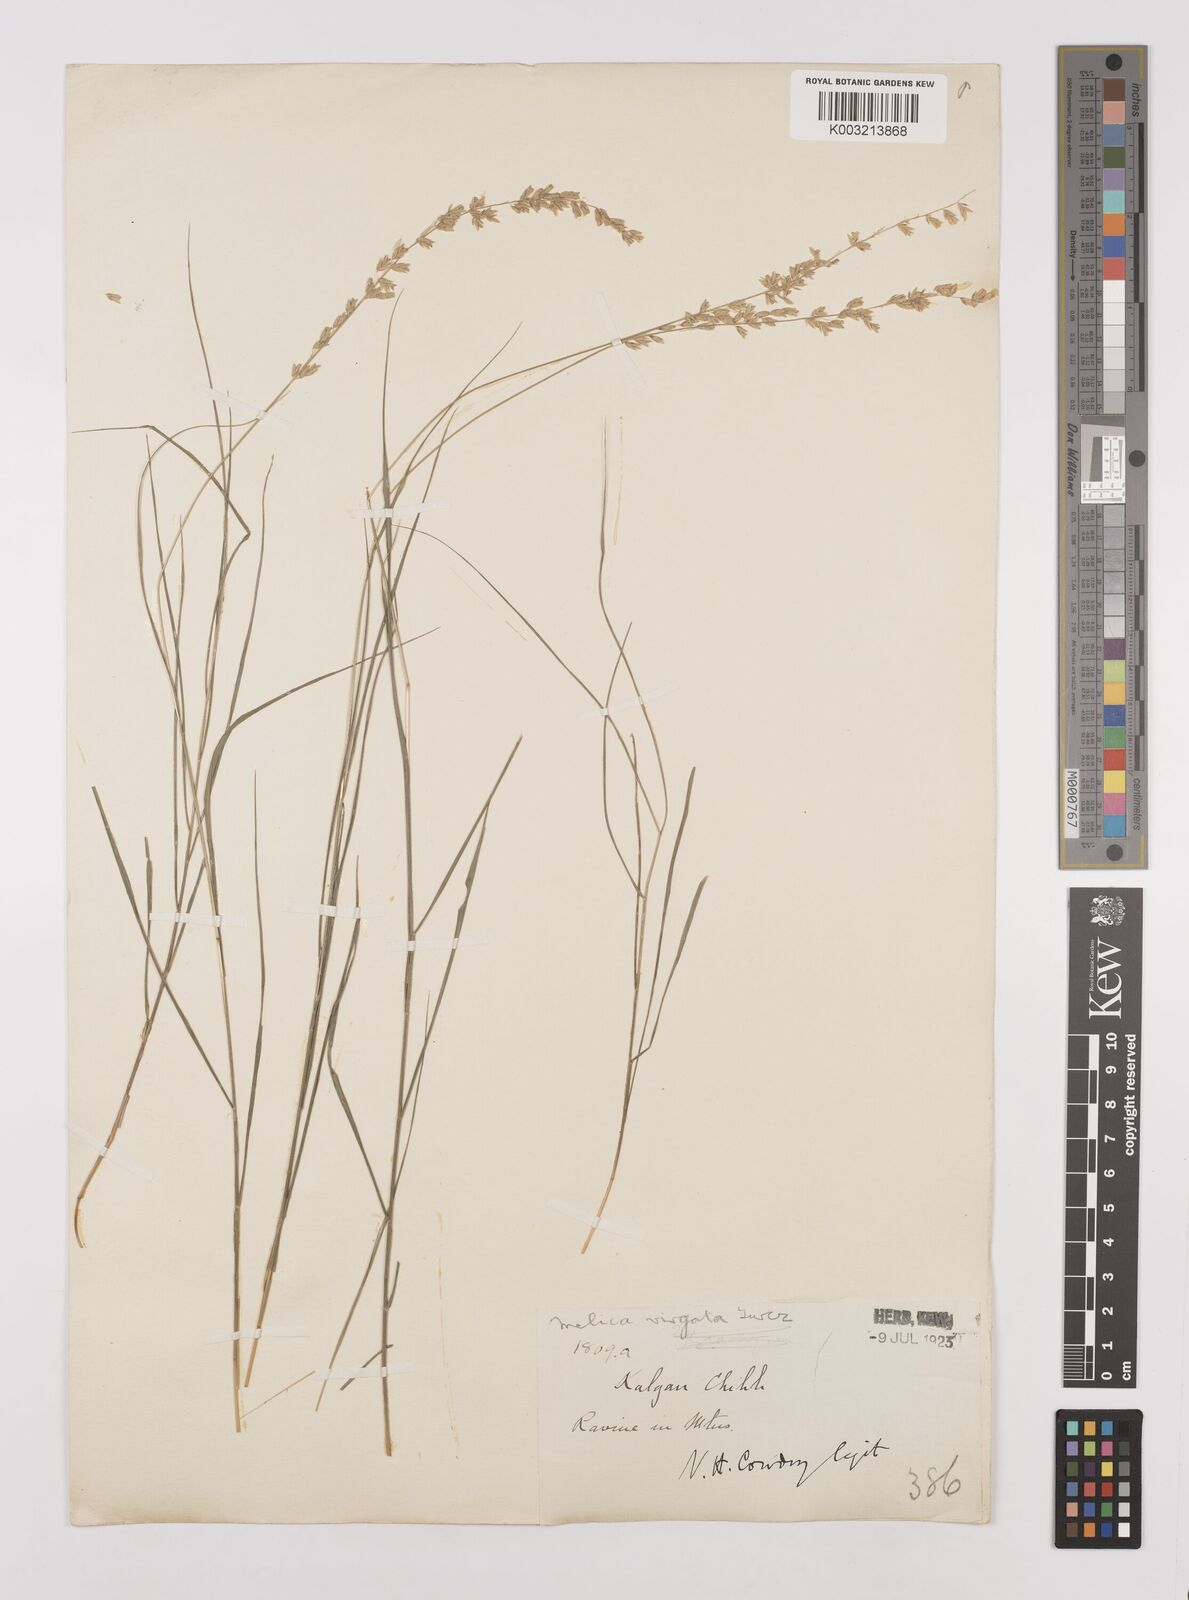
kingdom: Plantae
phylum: Tracheophyta
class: Liliopsida
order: Poales
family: Poaceae
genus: Melica
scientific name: Melica virgata
